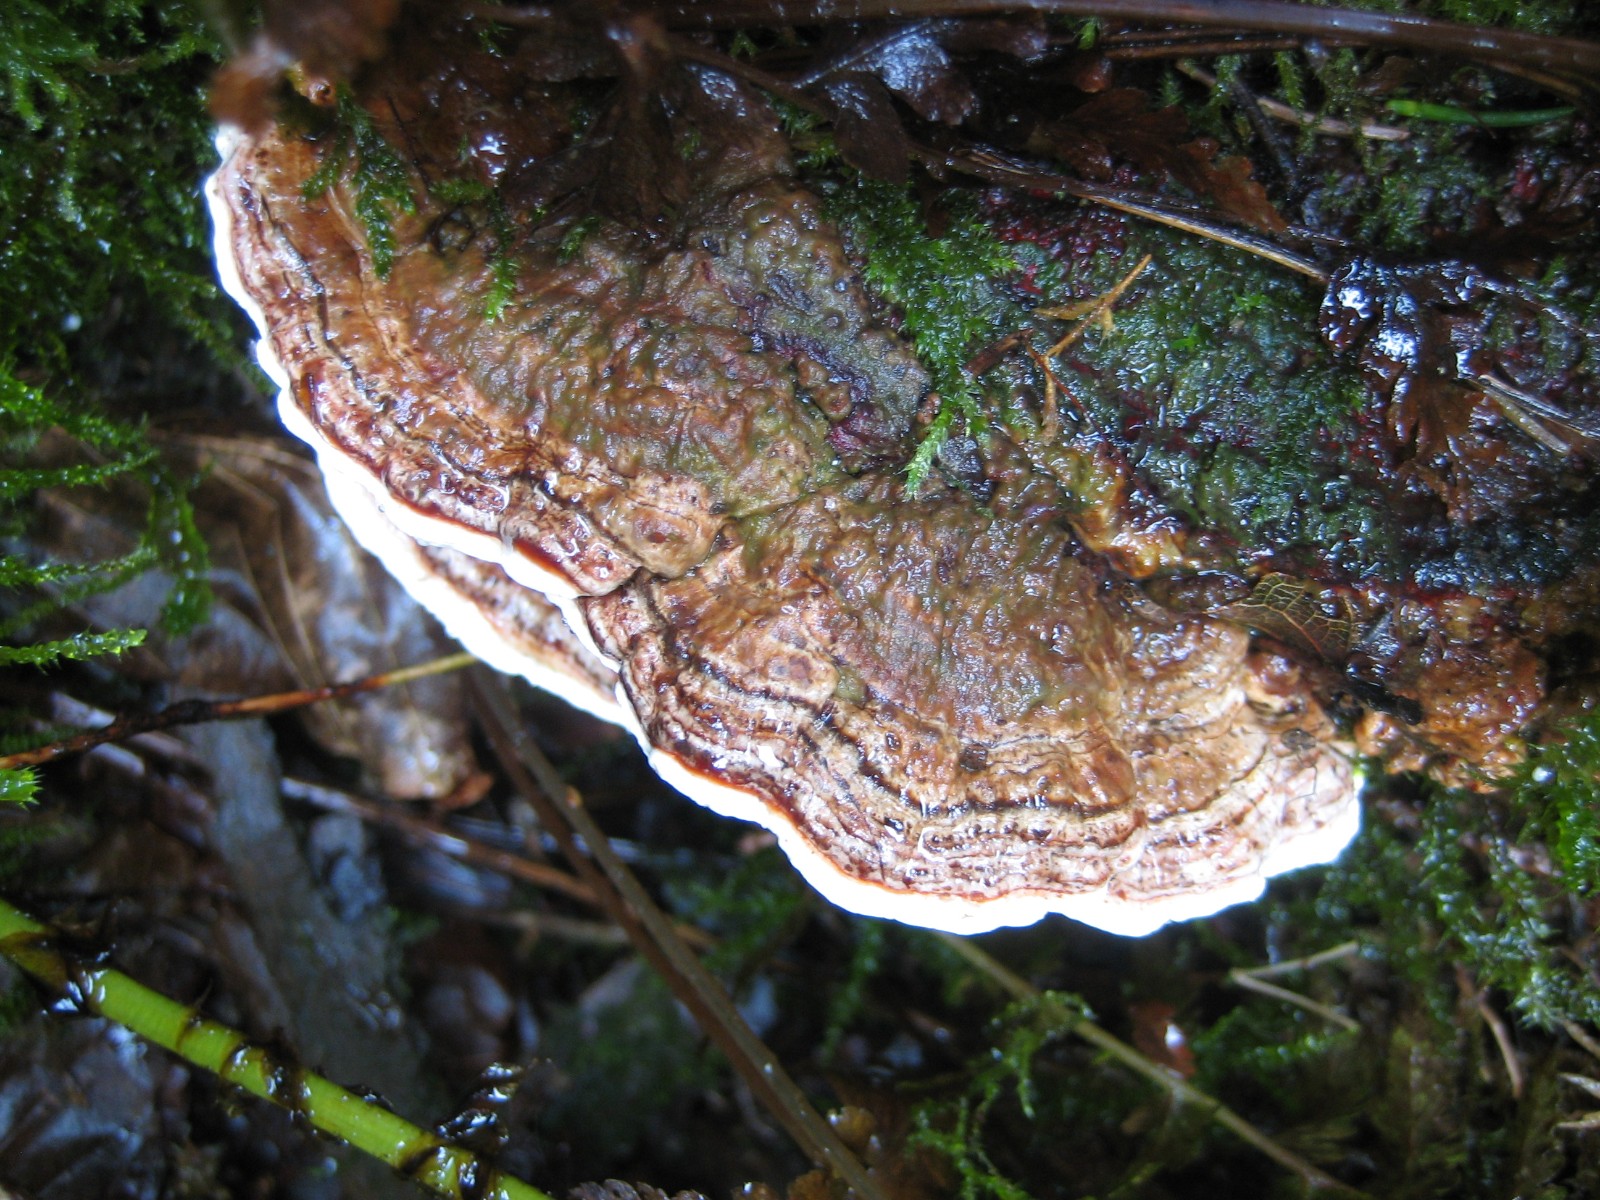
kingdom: Fungi
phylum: Basidiomycota
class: Agaricomycetes
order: Polyporales
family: Polyporaceae
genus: Trametes
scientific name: Trametes versicolor
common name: broget læderporesvamp
